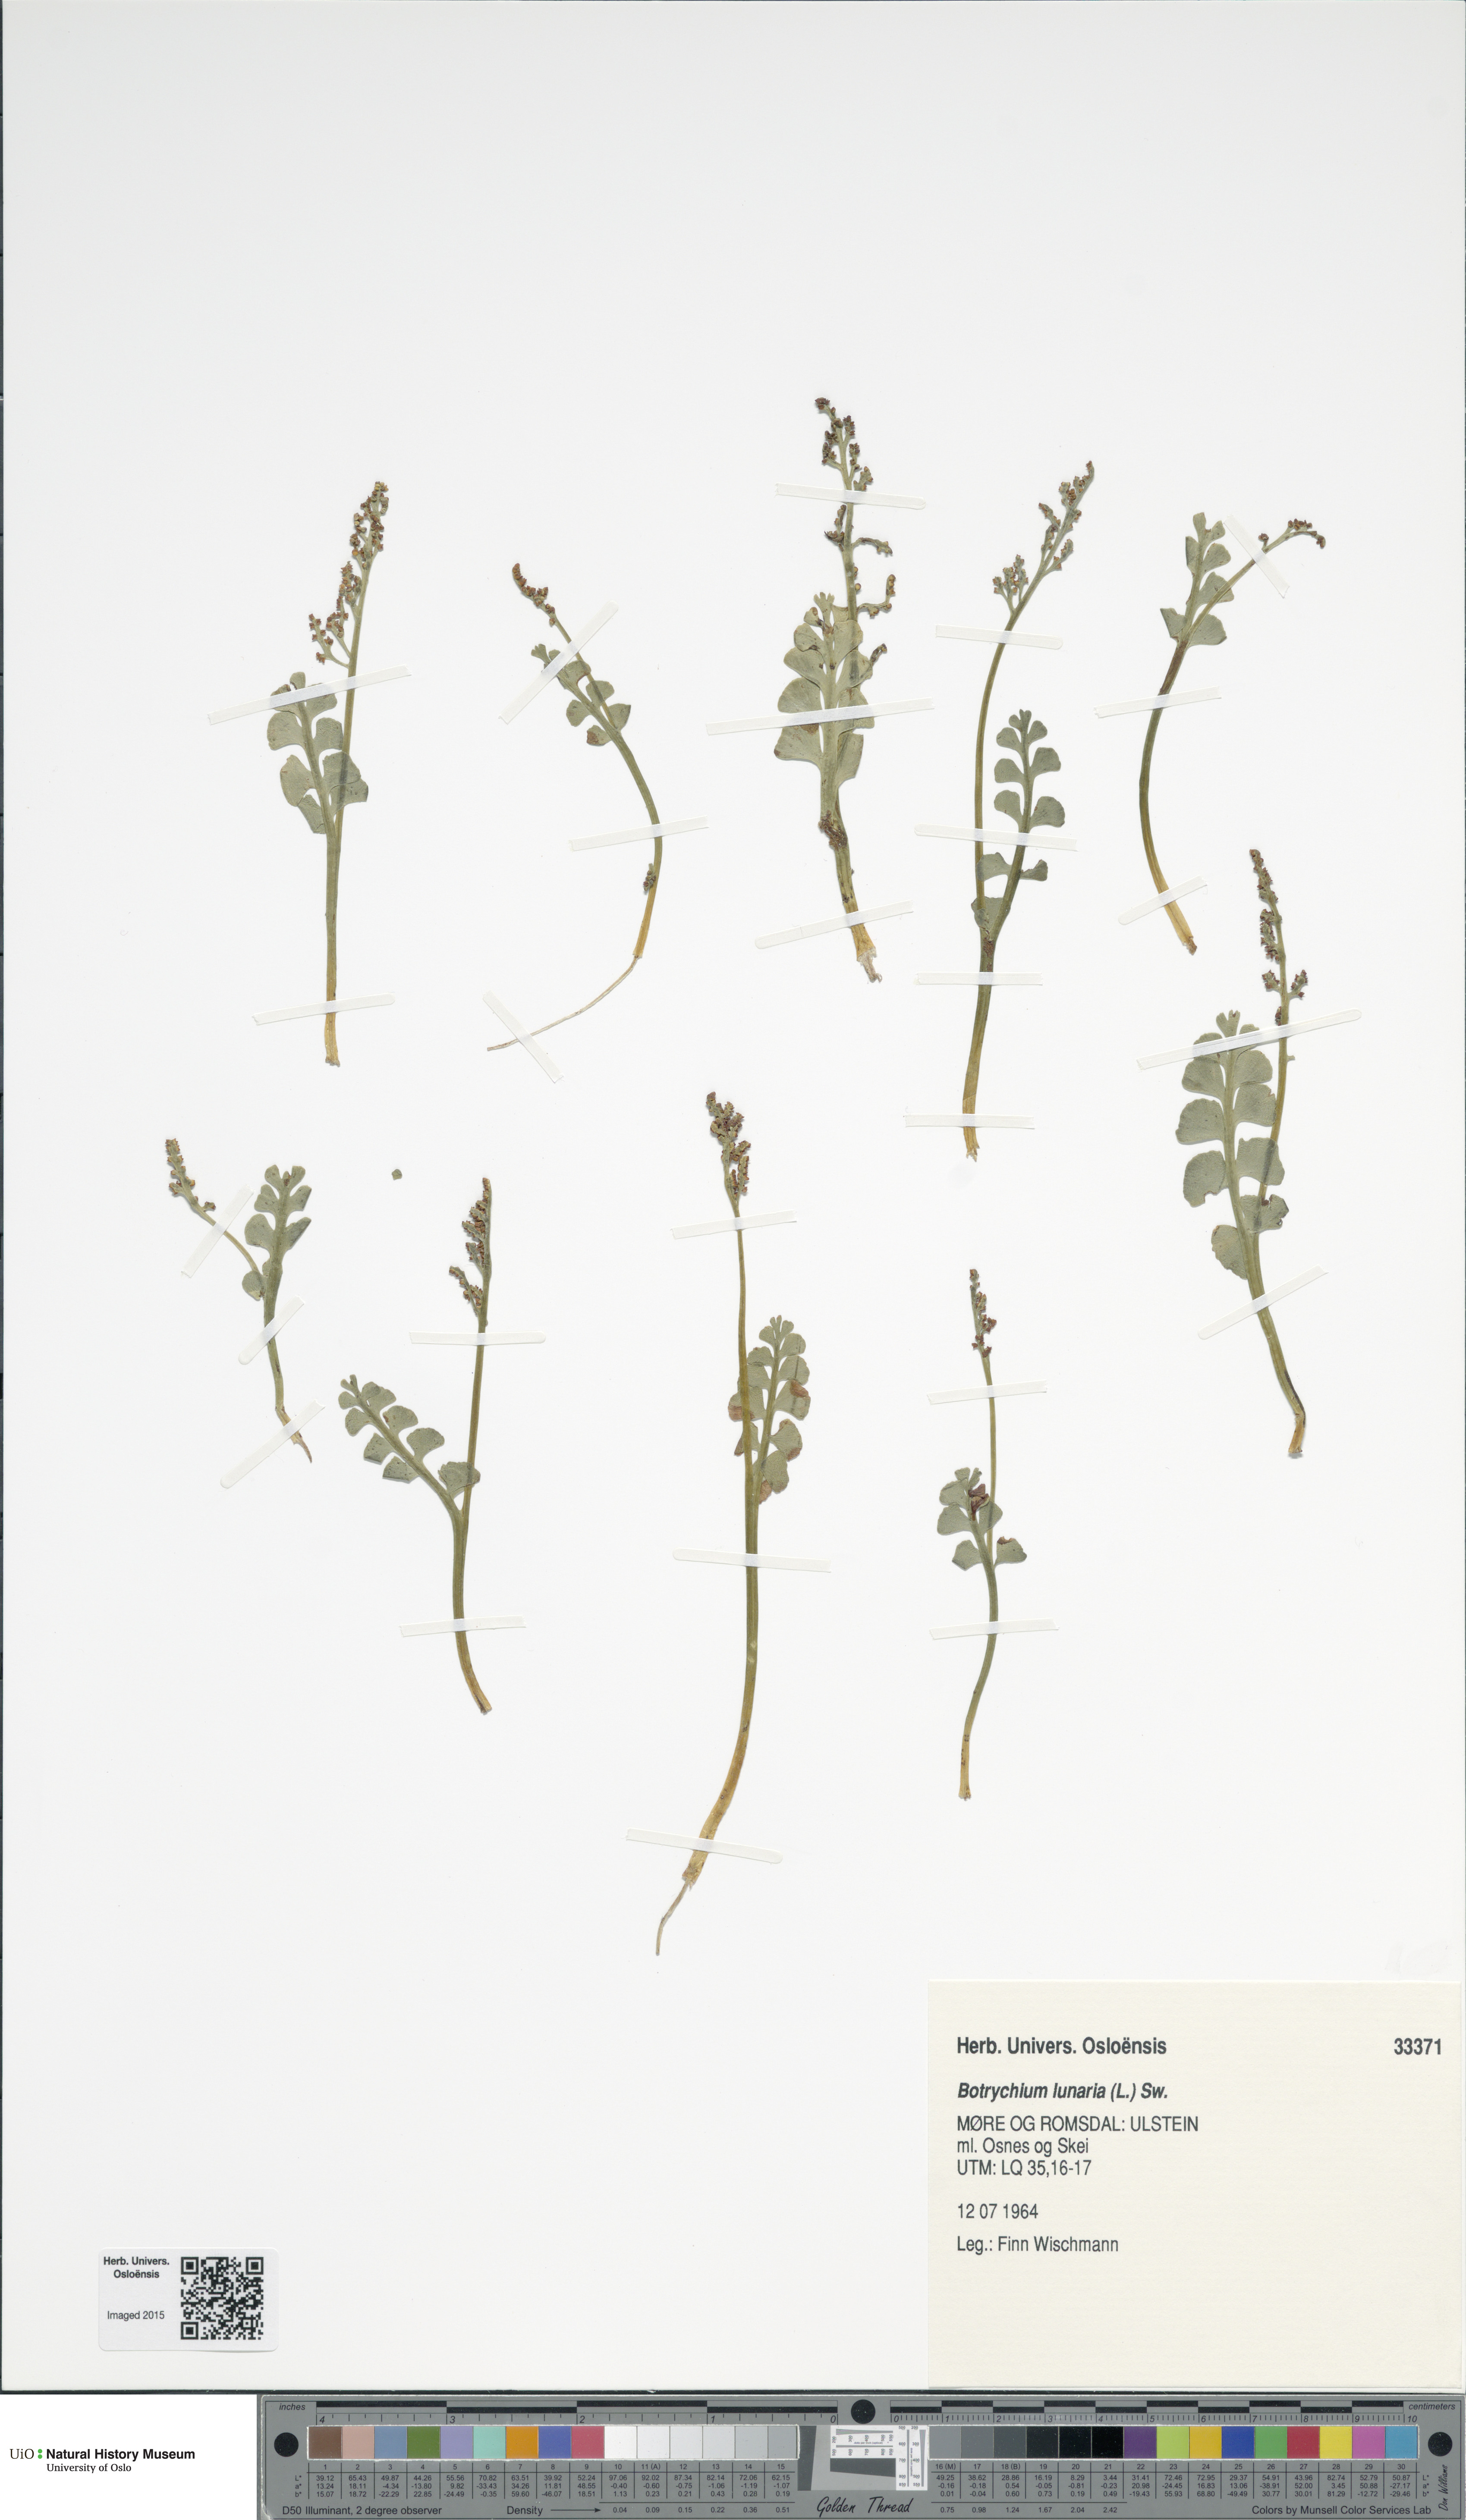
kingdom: Plantae
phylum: Tracheophyta
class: Polypodiopsida
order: Ophioglossales
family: Ophioglossaceae
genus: Botrychium
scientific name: Botrychium lunaria
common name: Moonwort
